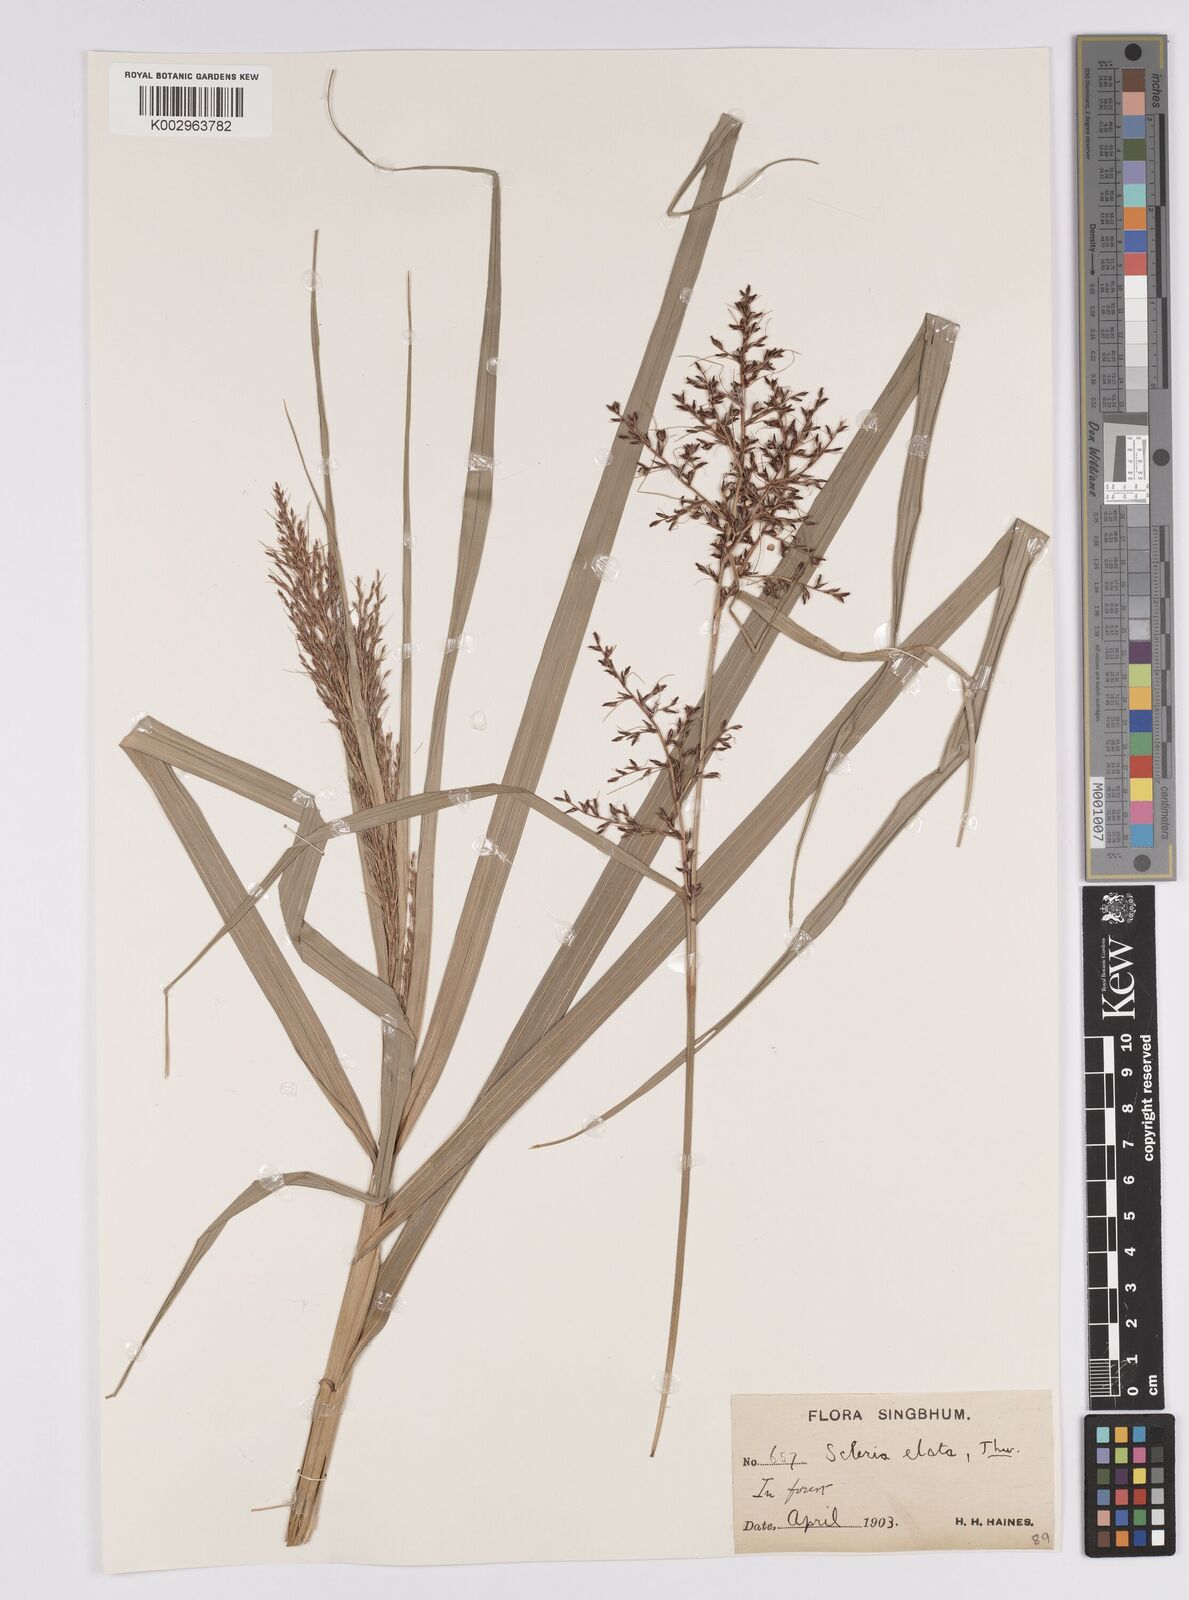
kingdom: Plantae
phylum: Tracheophyta
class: Liliopsida
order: Poales
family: Cyperaceae
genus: Scleria
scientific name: Scleria terrestris
